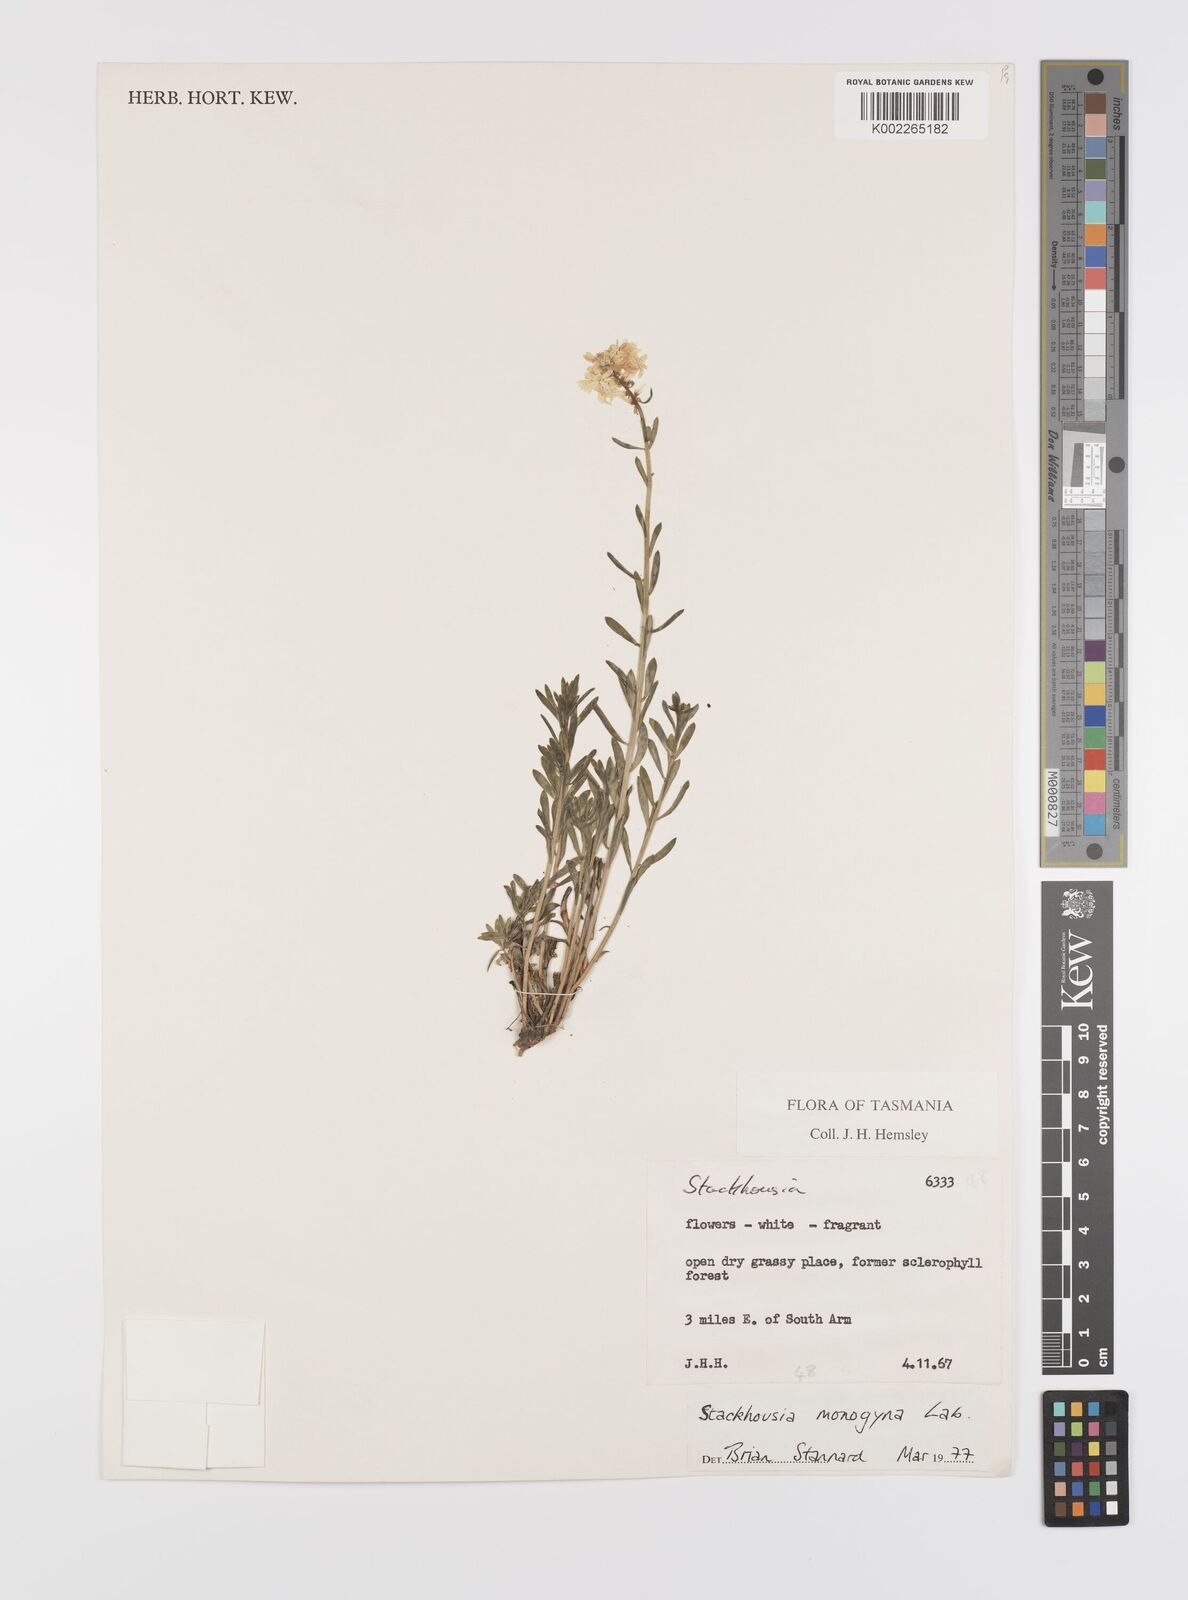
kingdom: Plantae
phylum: Tracheophyta
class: Magnoliopsida
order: Celastrales
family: Celastraceae
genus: Stackhousia
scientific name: Stackhousia monogyna
